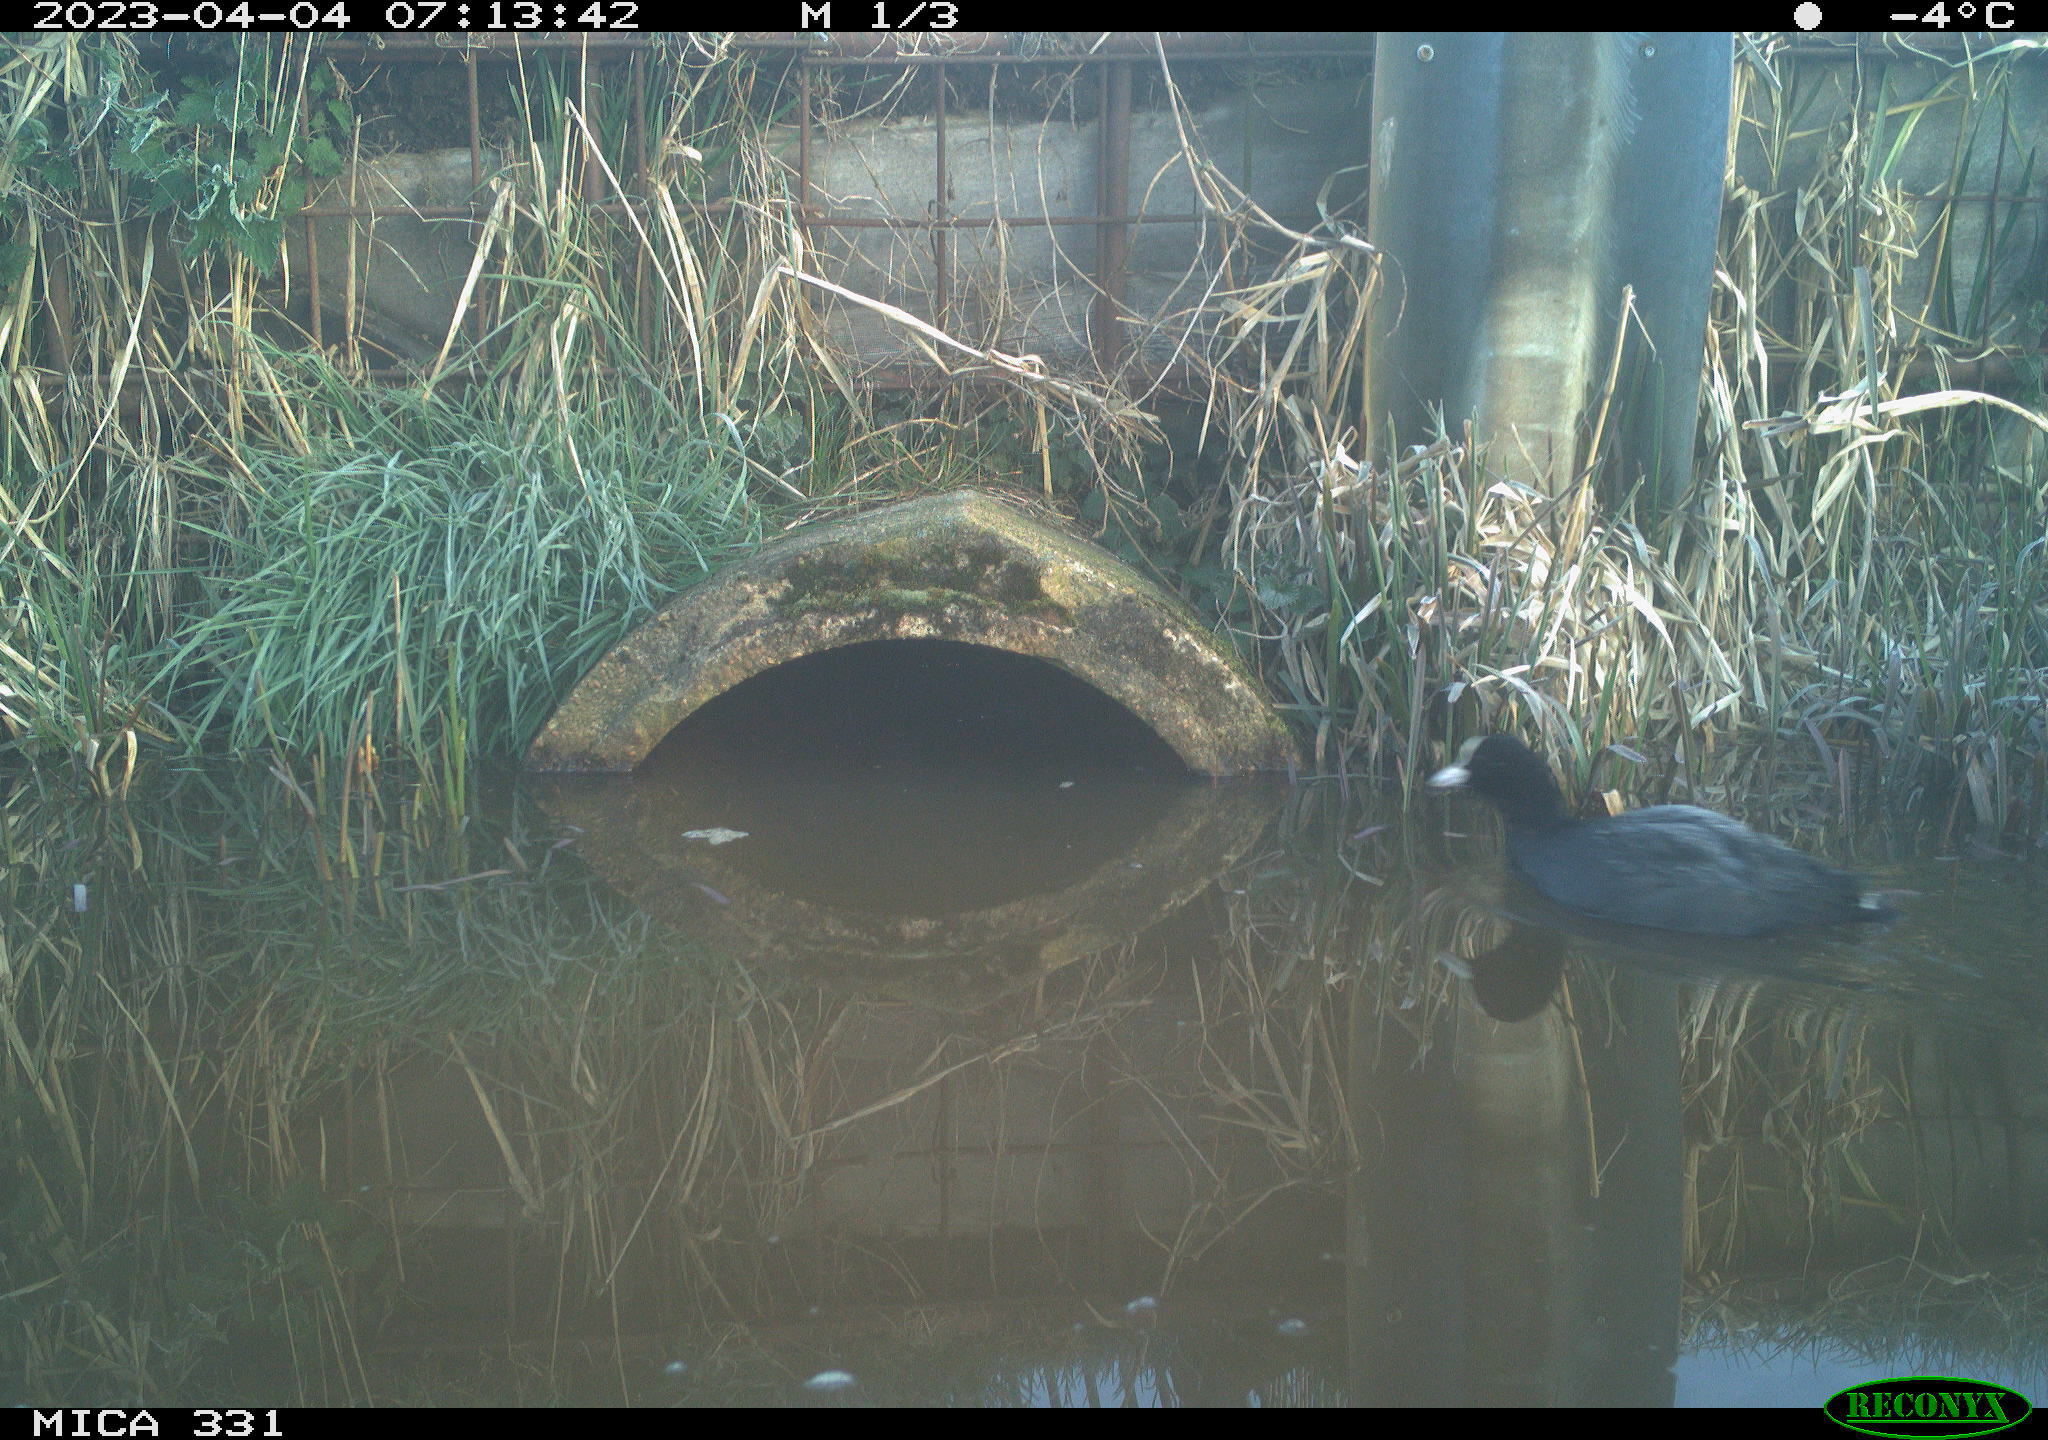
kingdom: Animalia
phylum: Chordata
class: Aves
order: Gruiformes
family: Rallidae
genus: Fulica
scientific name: Fulica atra
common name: Eurasian coot
